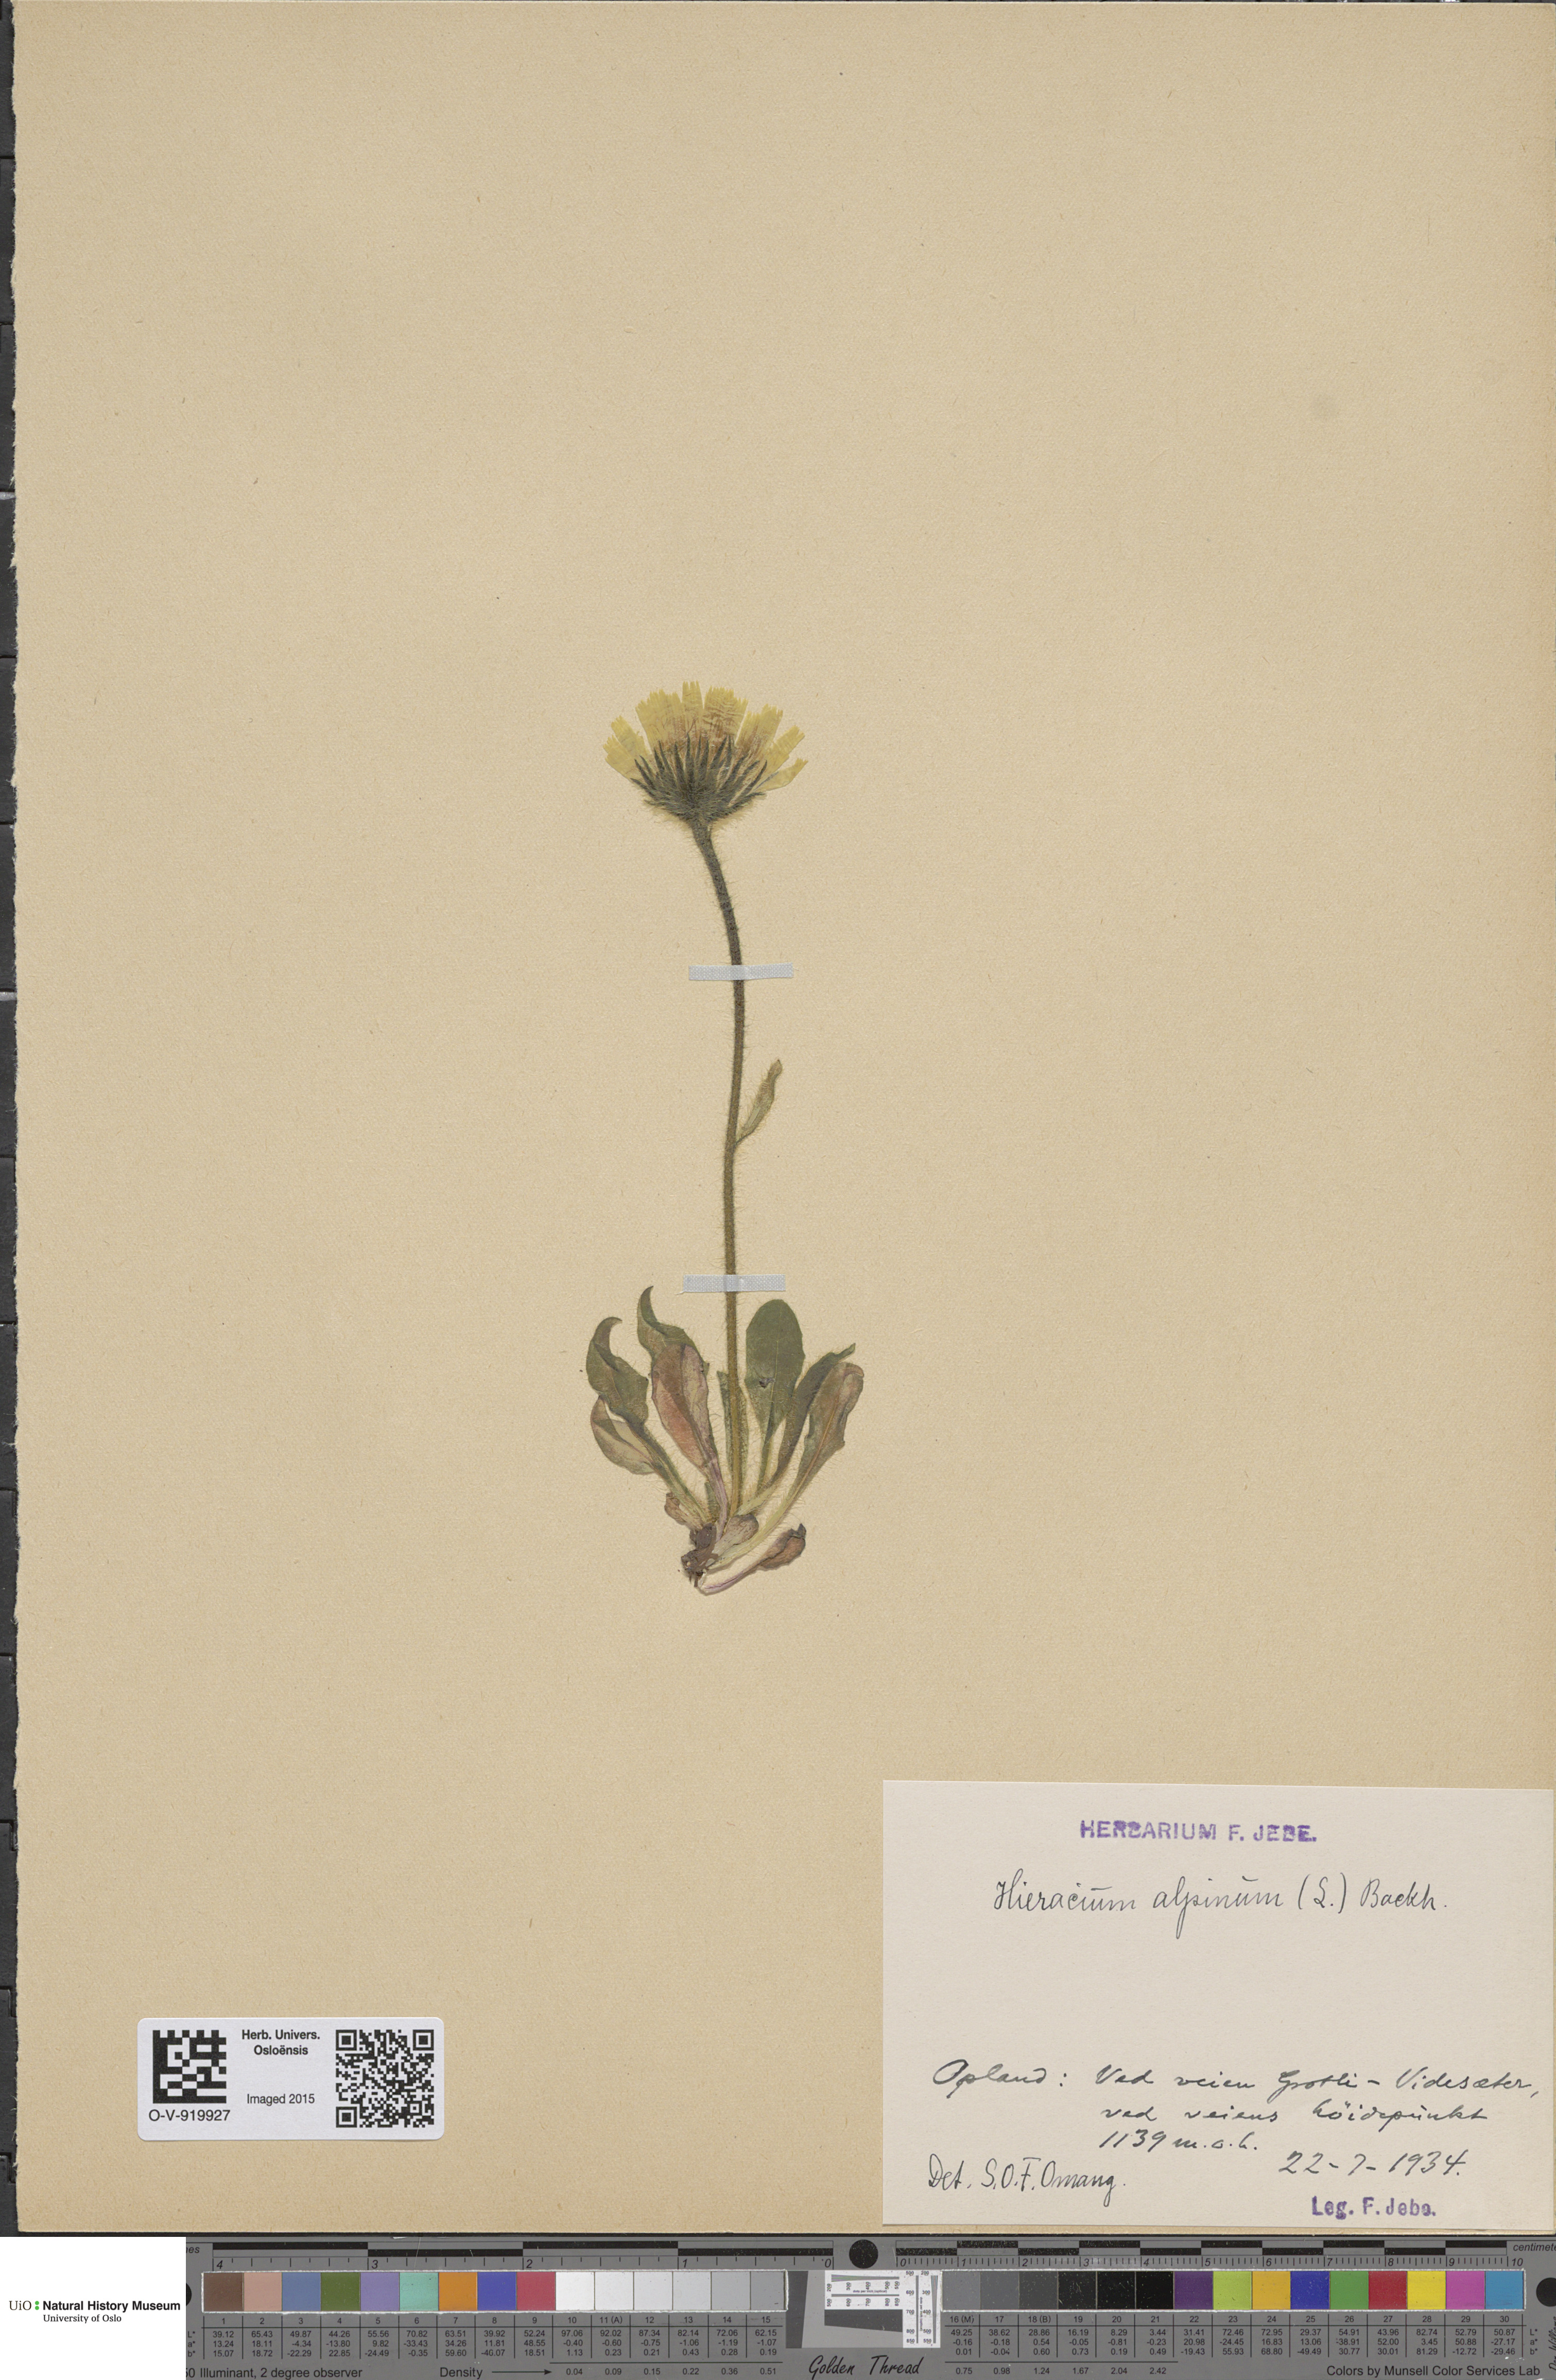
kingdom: Plantae
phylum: Tracheophyta
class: Magnoliopsida
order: Asterales
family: Asteraceae
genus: Hieracium
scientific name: Hieracium alpinum
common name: Alpine hawkweed
